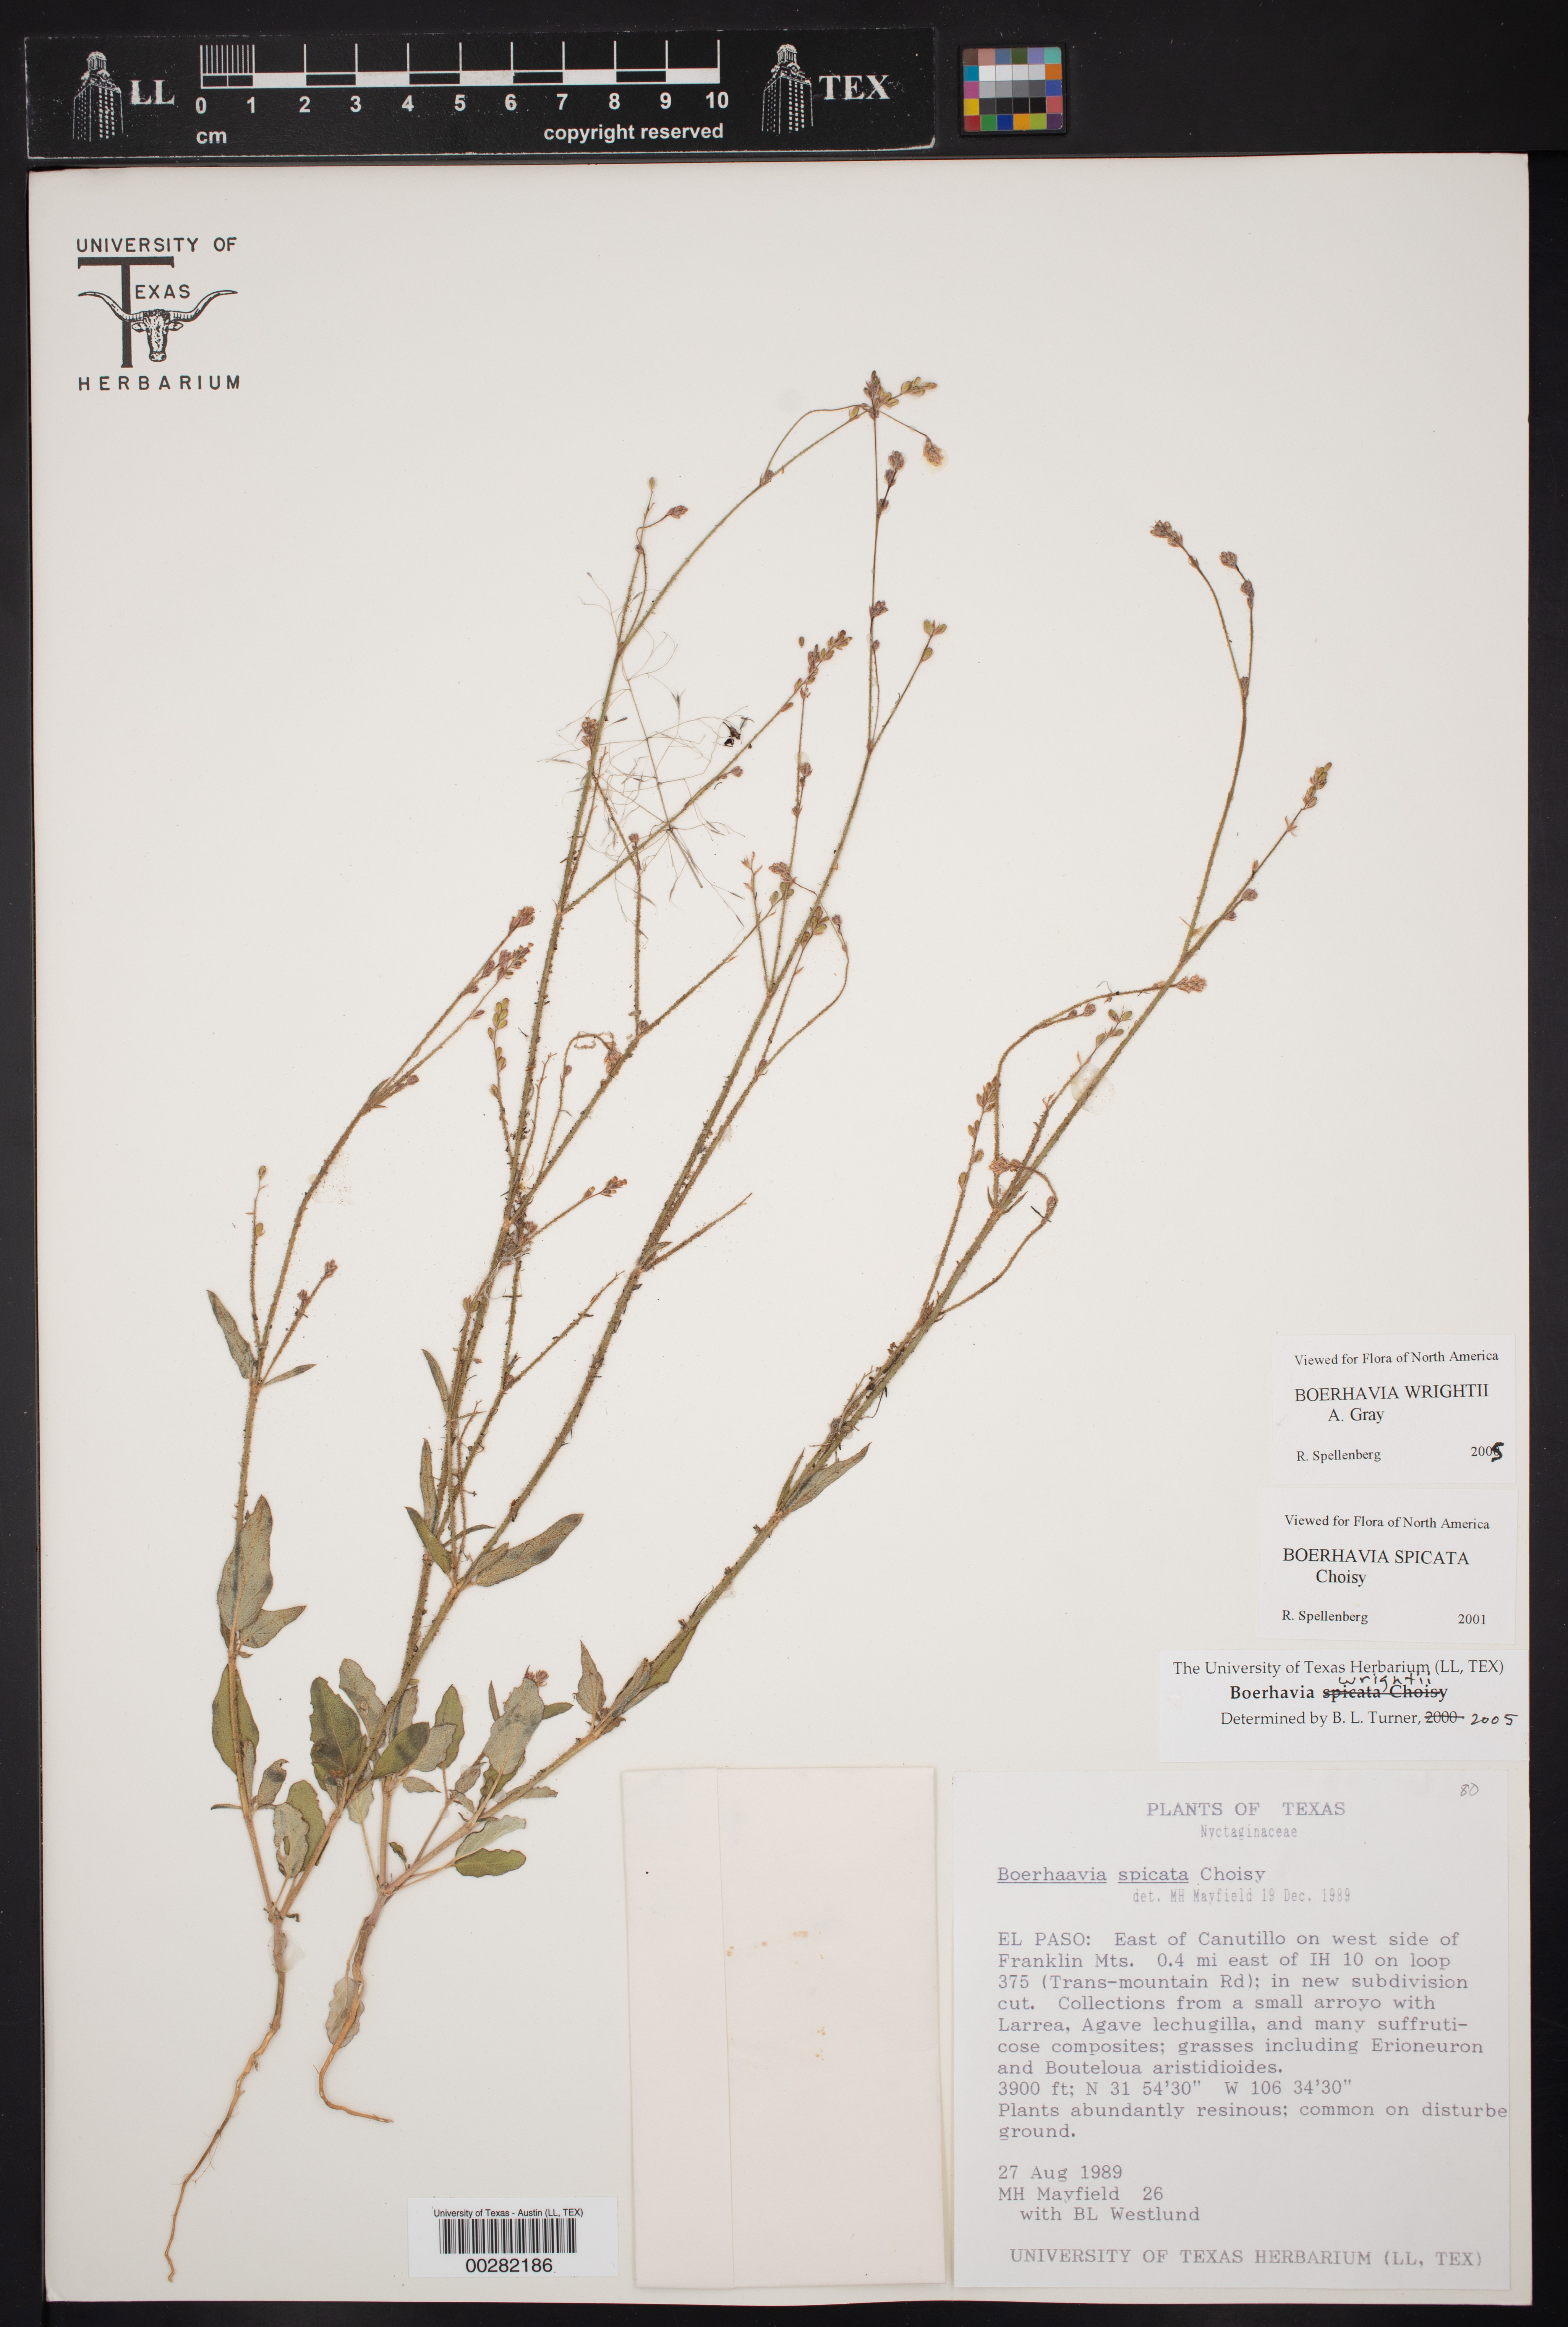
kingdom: Plantae
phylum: Tracheophyta
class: Magnoliopsida
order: Caryophyllales
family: Nyctaginaceae
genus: Boerhavia
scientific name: Boerhavia wrightii
